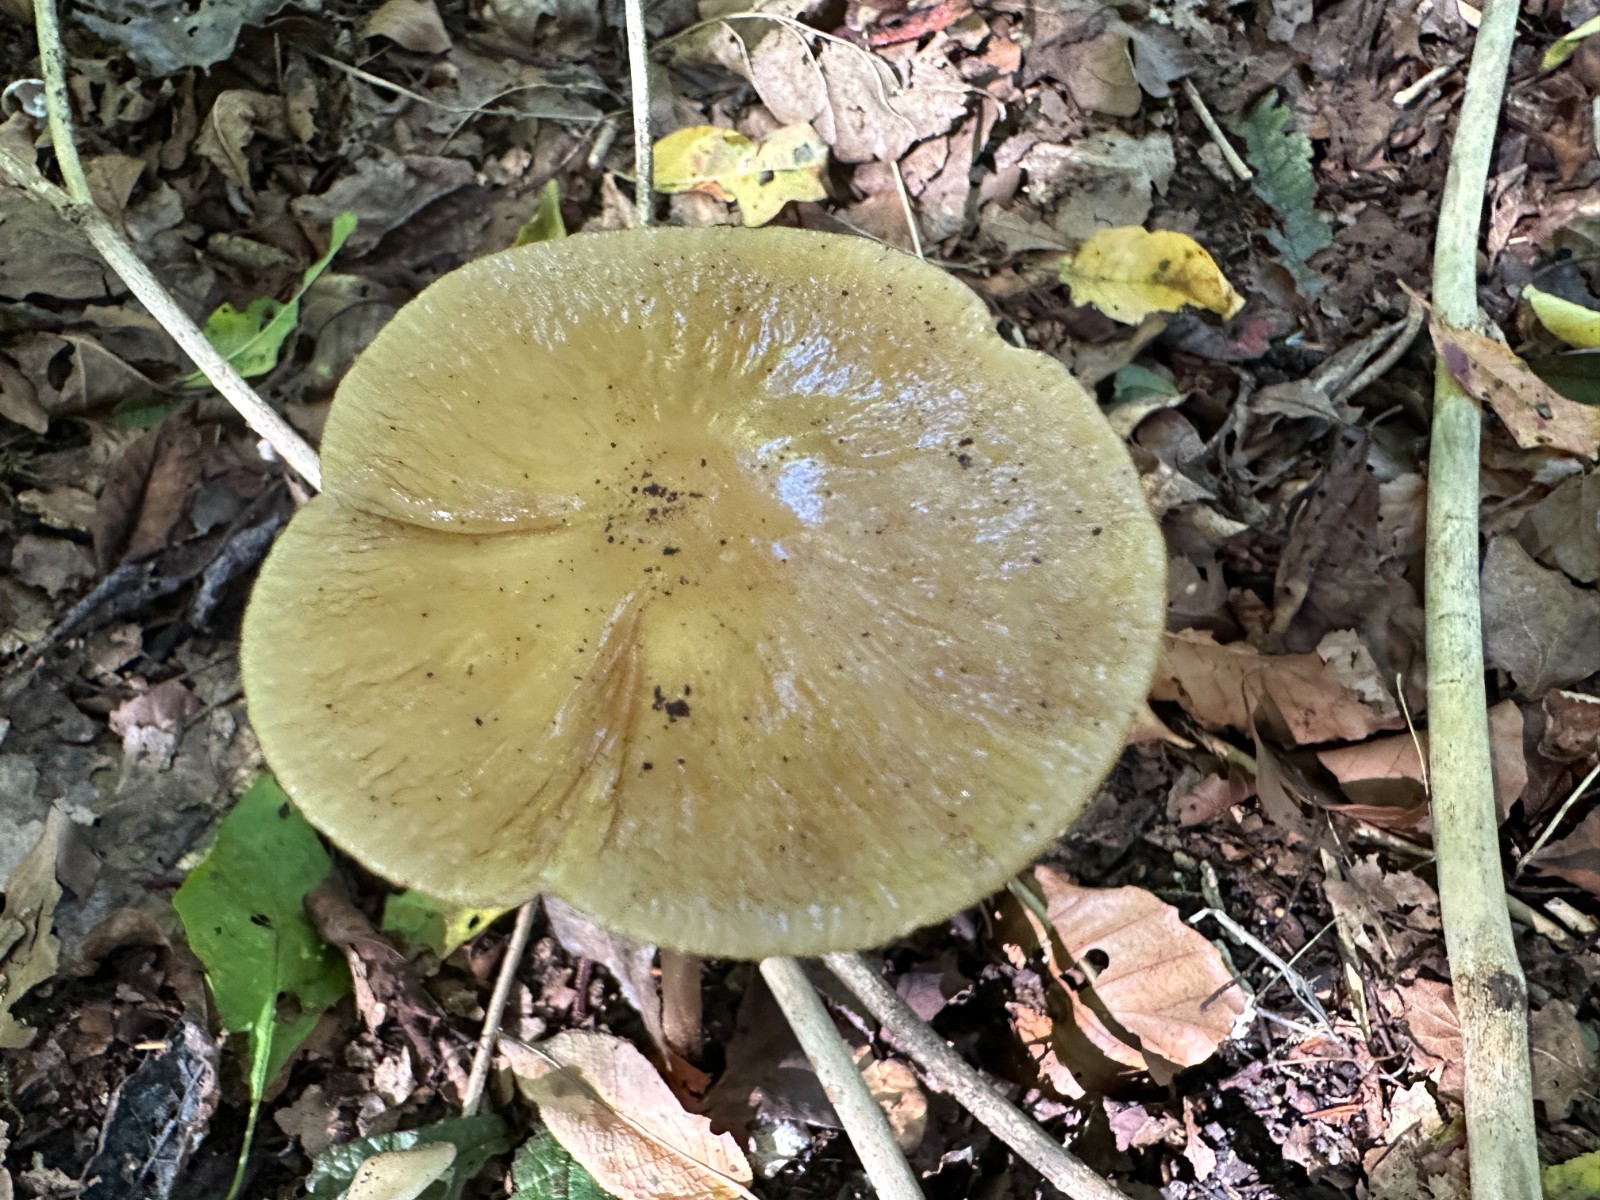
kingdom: Fungi
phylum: Basidiomycota
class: Agaricomycetes
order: Agaricales
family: Physalacriaceae
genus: Hymenopellis
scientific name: Hymenopellis radicata
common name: almindelig pælerodshat
